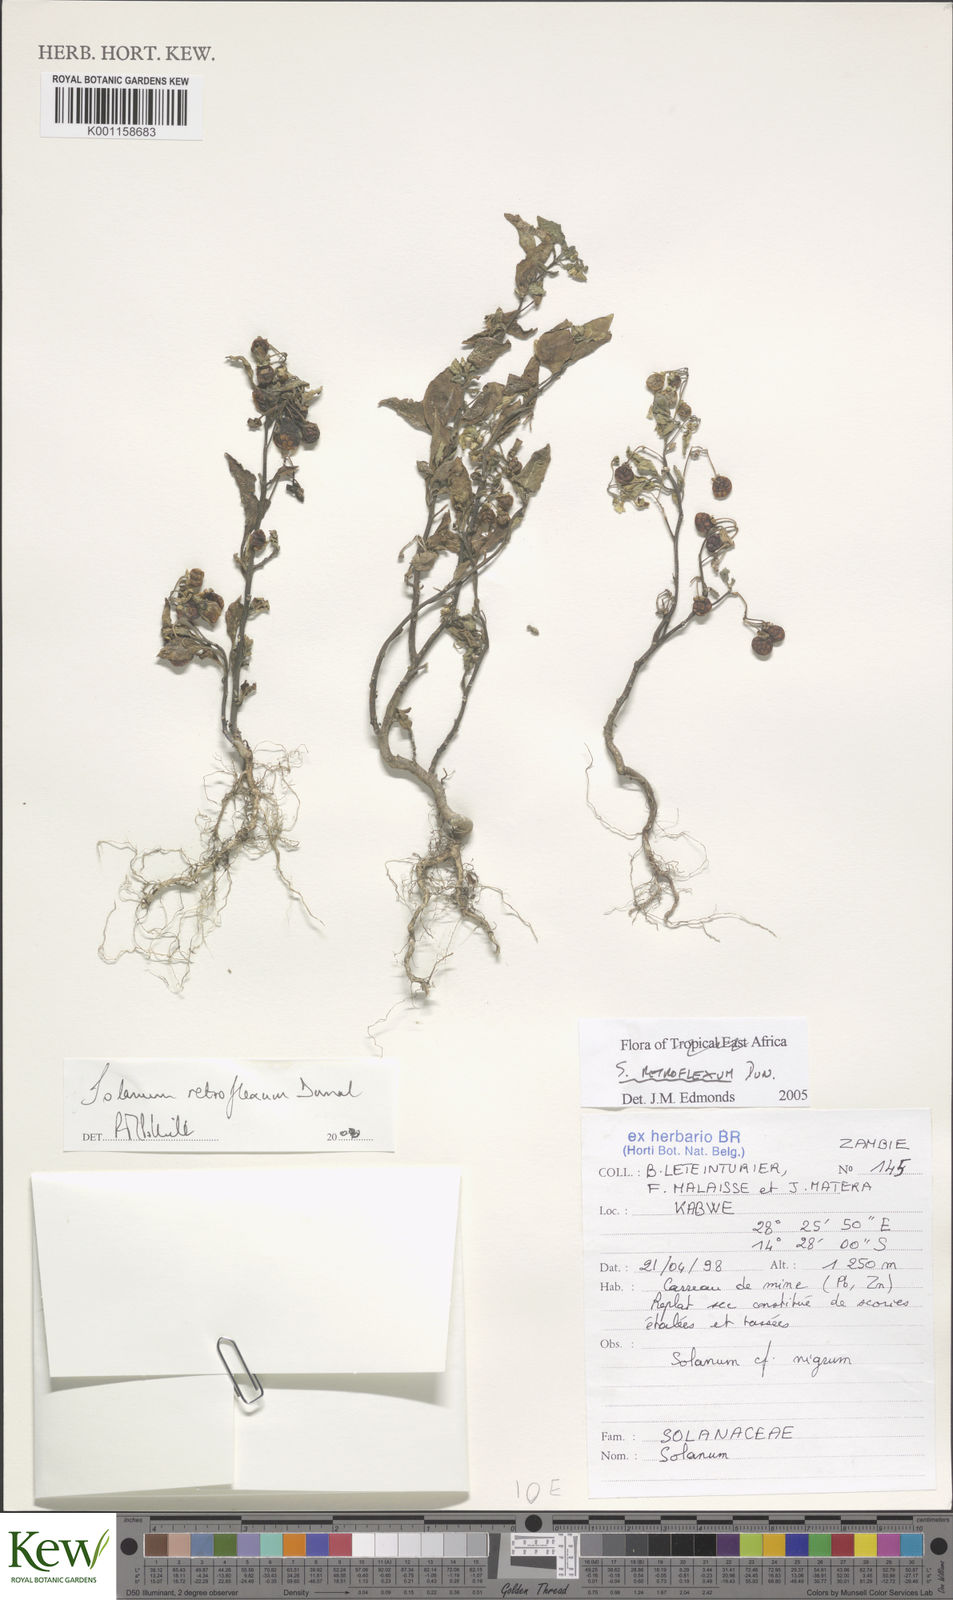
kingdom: Plantae
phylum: Tracheophyta
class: Magnoliopsida
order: Solanales
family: Solanaceae
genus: Solanum
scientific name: Solanum retroflexum
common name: Wonderberry
